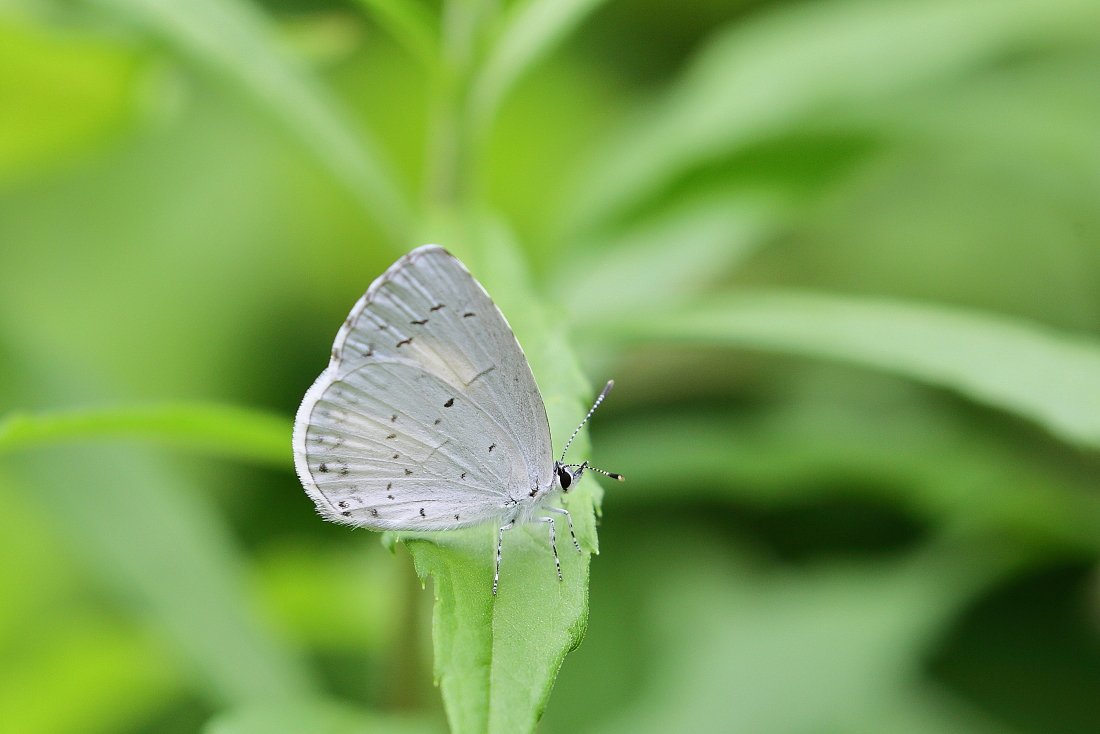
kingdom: Animalia
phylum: Arthropoda
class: Insecta
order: Lepidoptera
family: Lycaenidae
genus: Cyaniris
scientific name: Cyaniris neglecta
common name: Summer Azure
